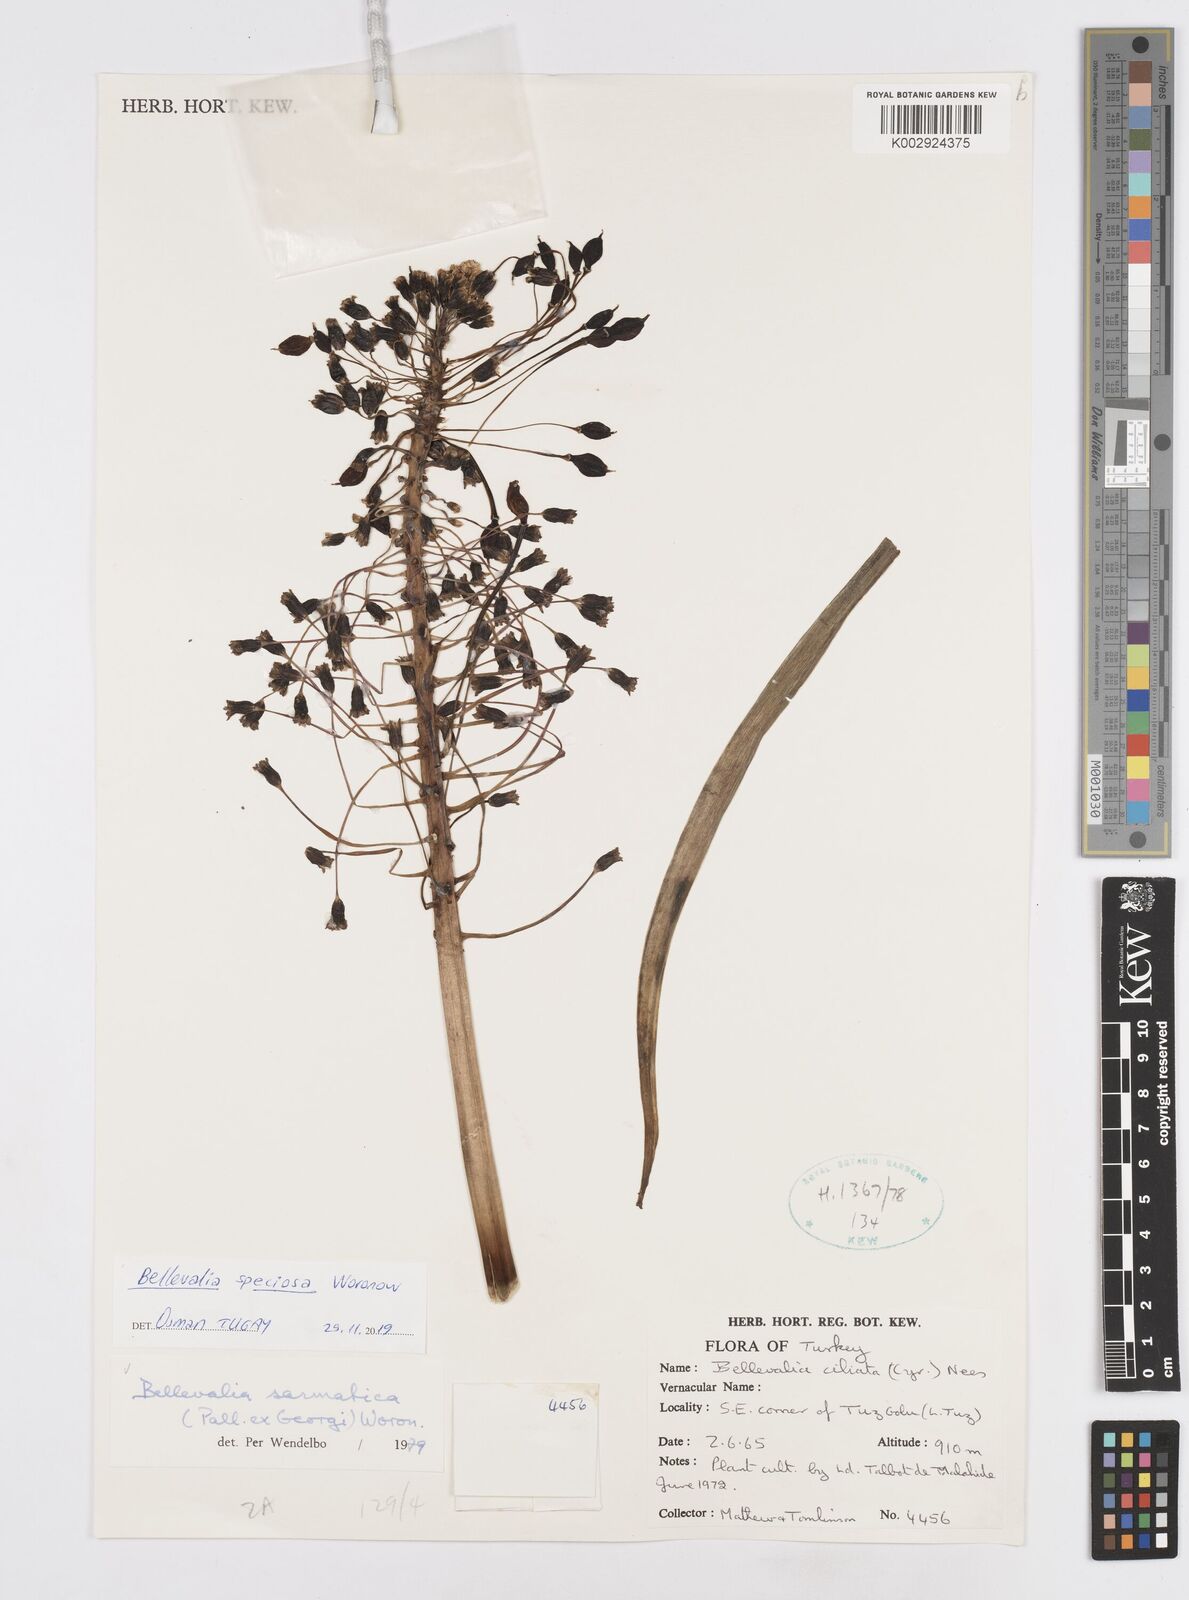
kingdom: Plantae
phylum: Tracheophyta
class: Liliopsida
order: Asparagales
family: Asparagaceae
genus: Bellevalia
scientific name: Bellevalia speciosa
